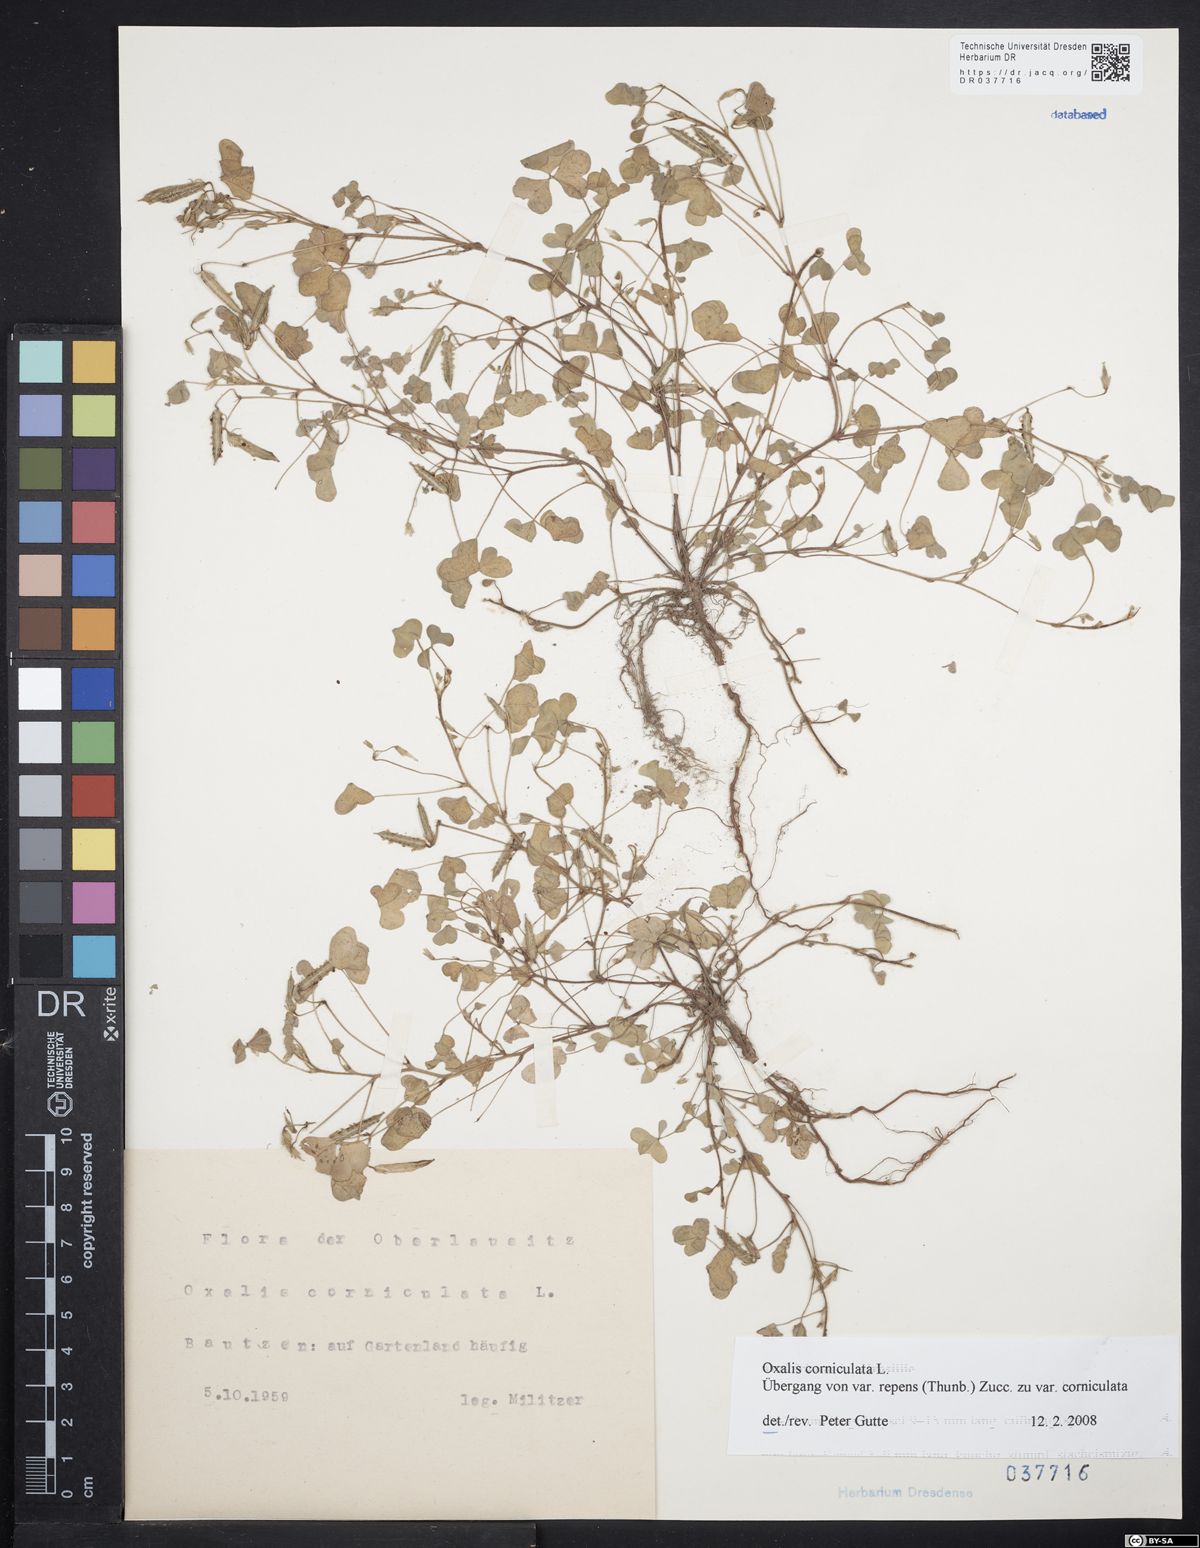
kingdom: Plantae
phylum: Tracheophyta
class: Magnoliopsida
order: Oxalidales
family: Oxalidaceae
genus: Oxalis
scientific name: Oxalis corniculata
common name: Procumbent yellow-sorrel
